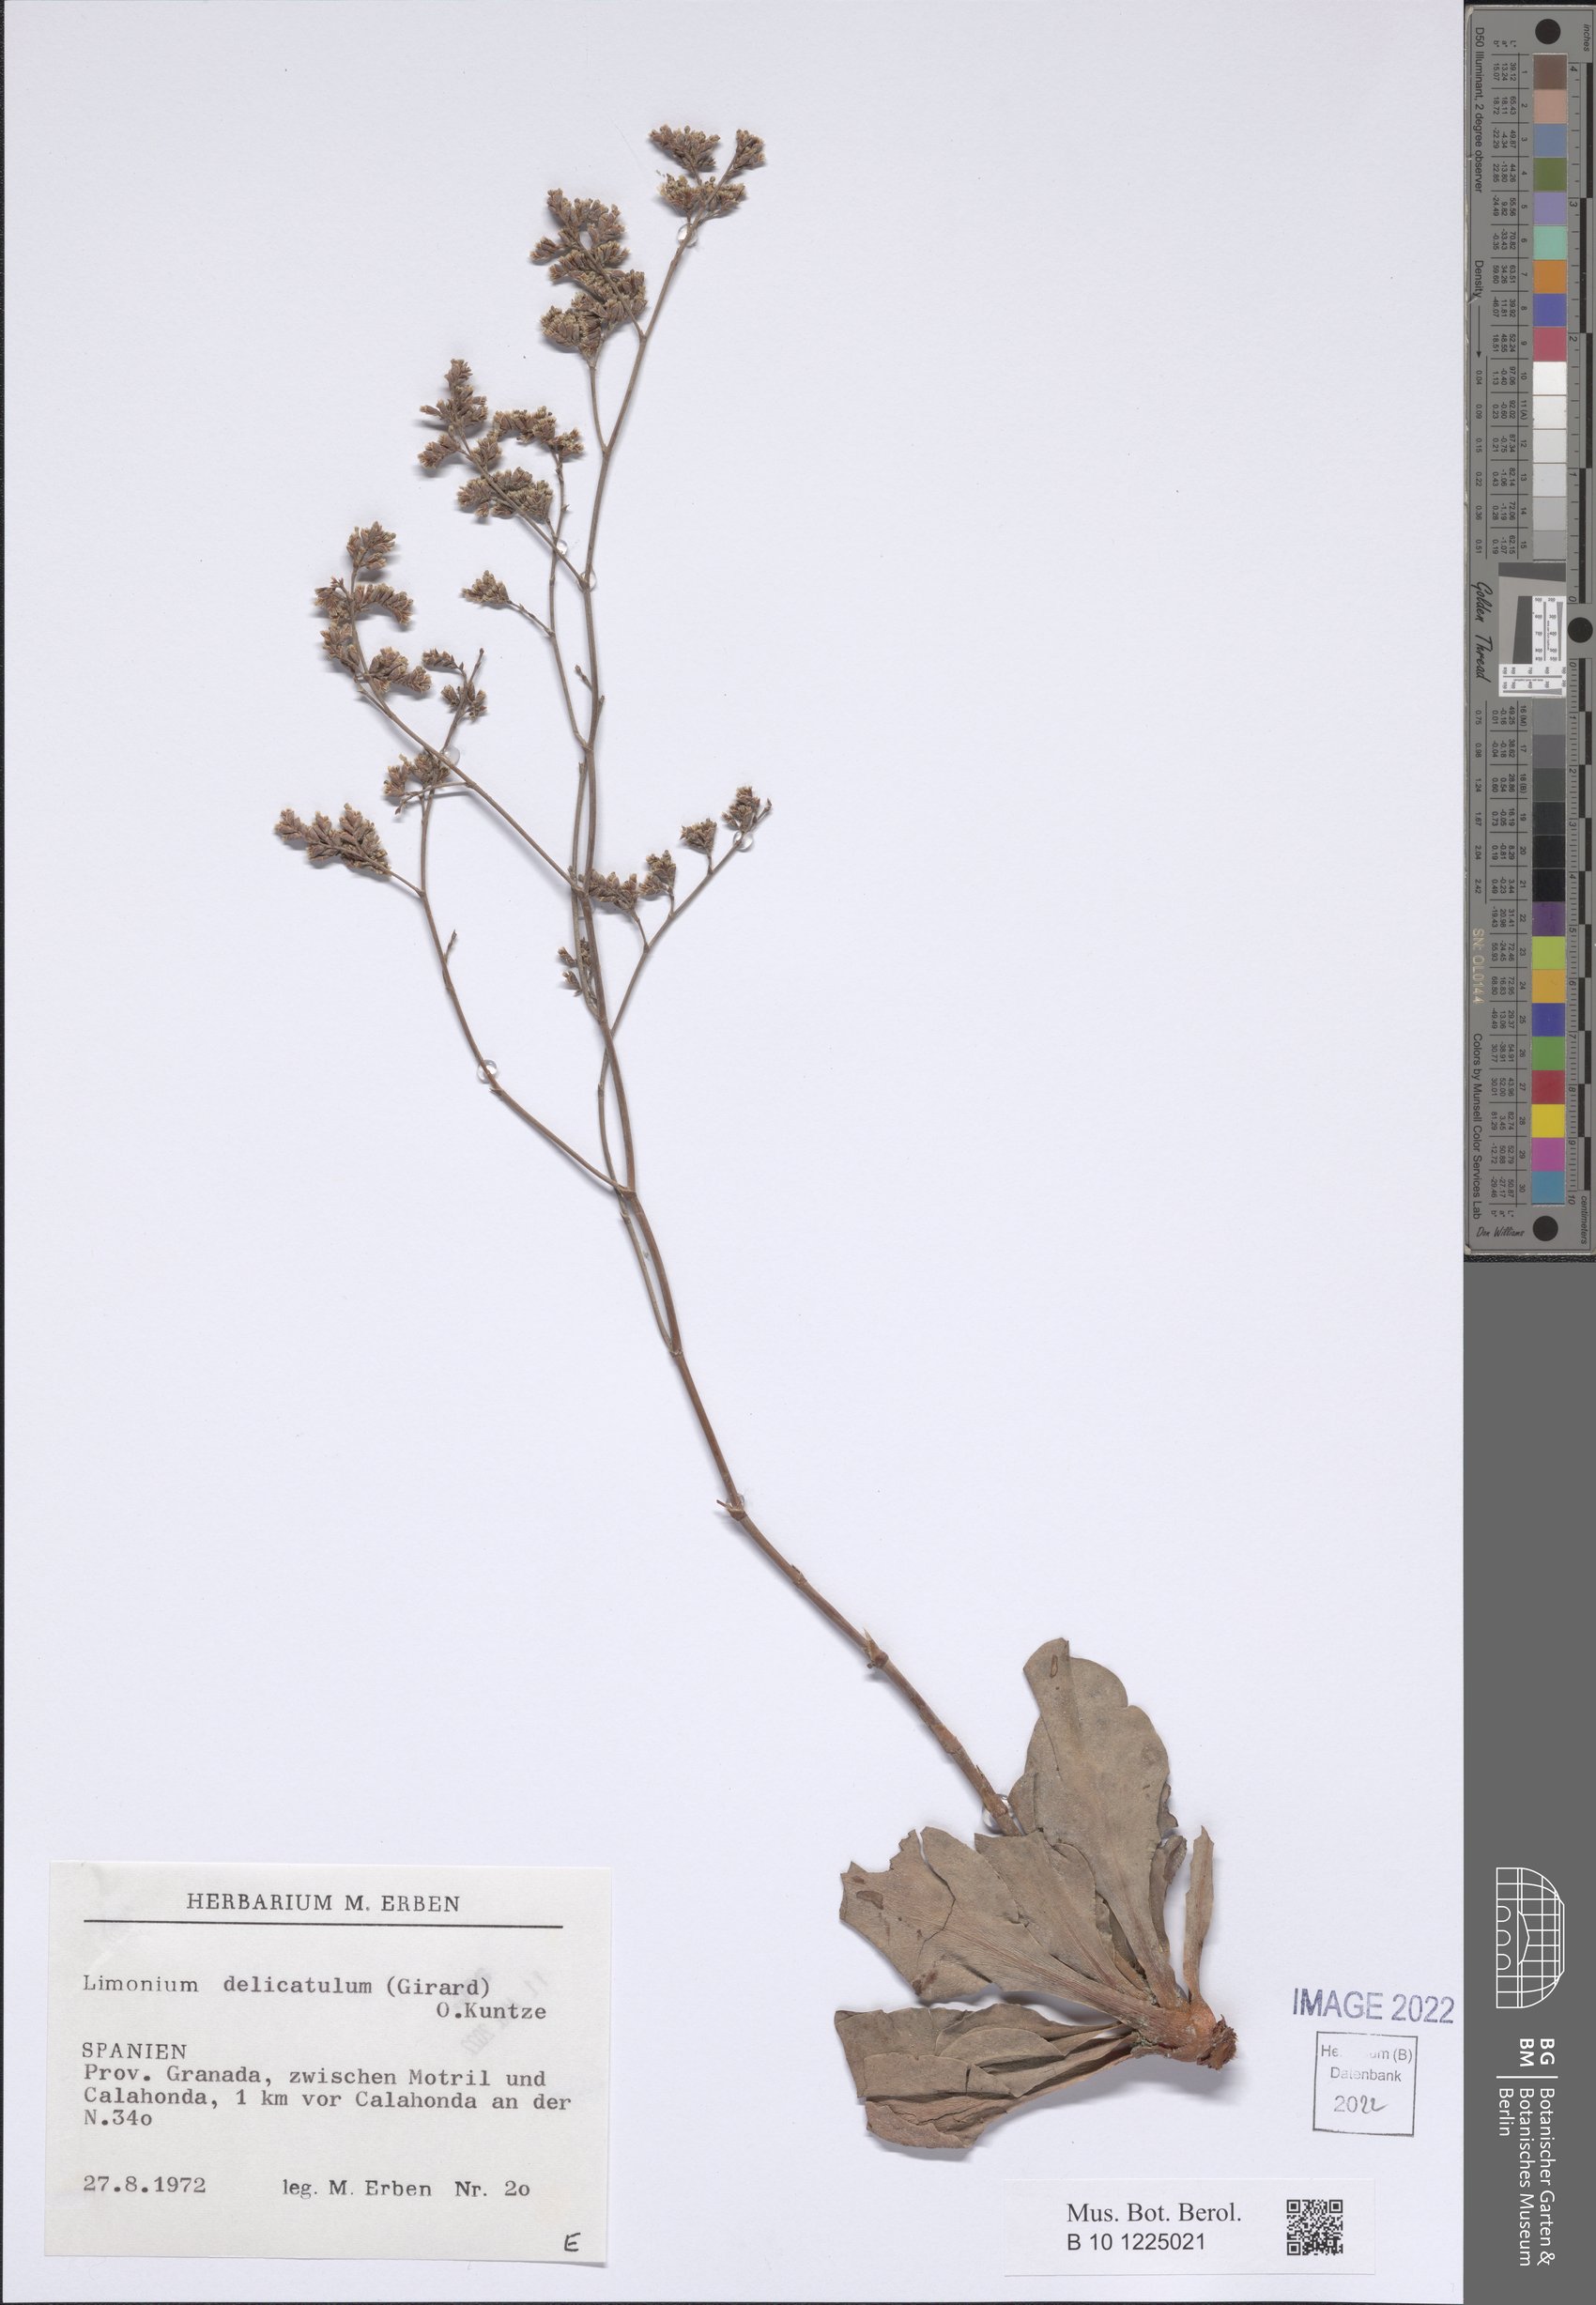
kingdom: Plantae
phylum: Tracheophyta
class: Magnoliopsida
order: Caryophyllales
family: Plumbaginaceae
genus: Limonium
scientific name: Limonium delicatulum
